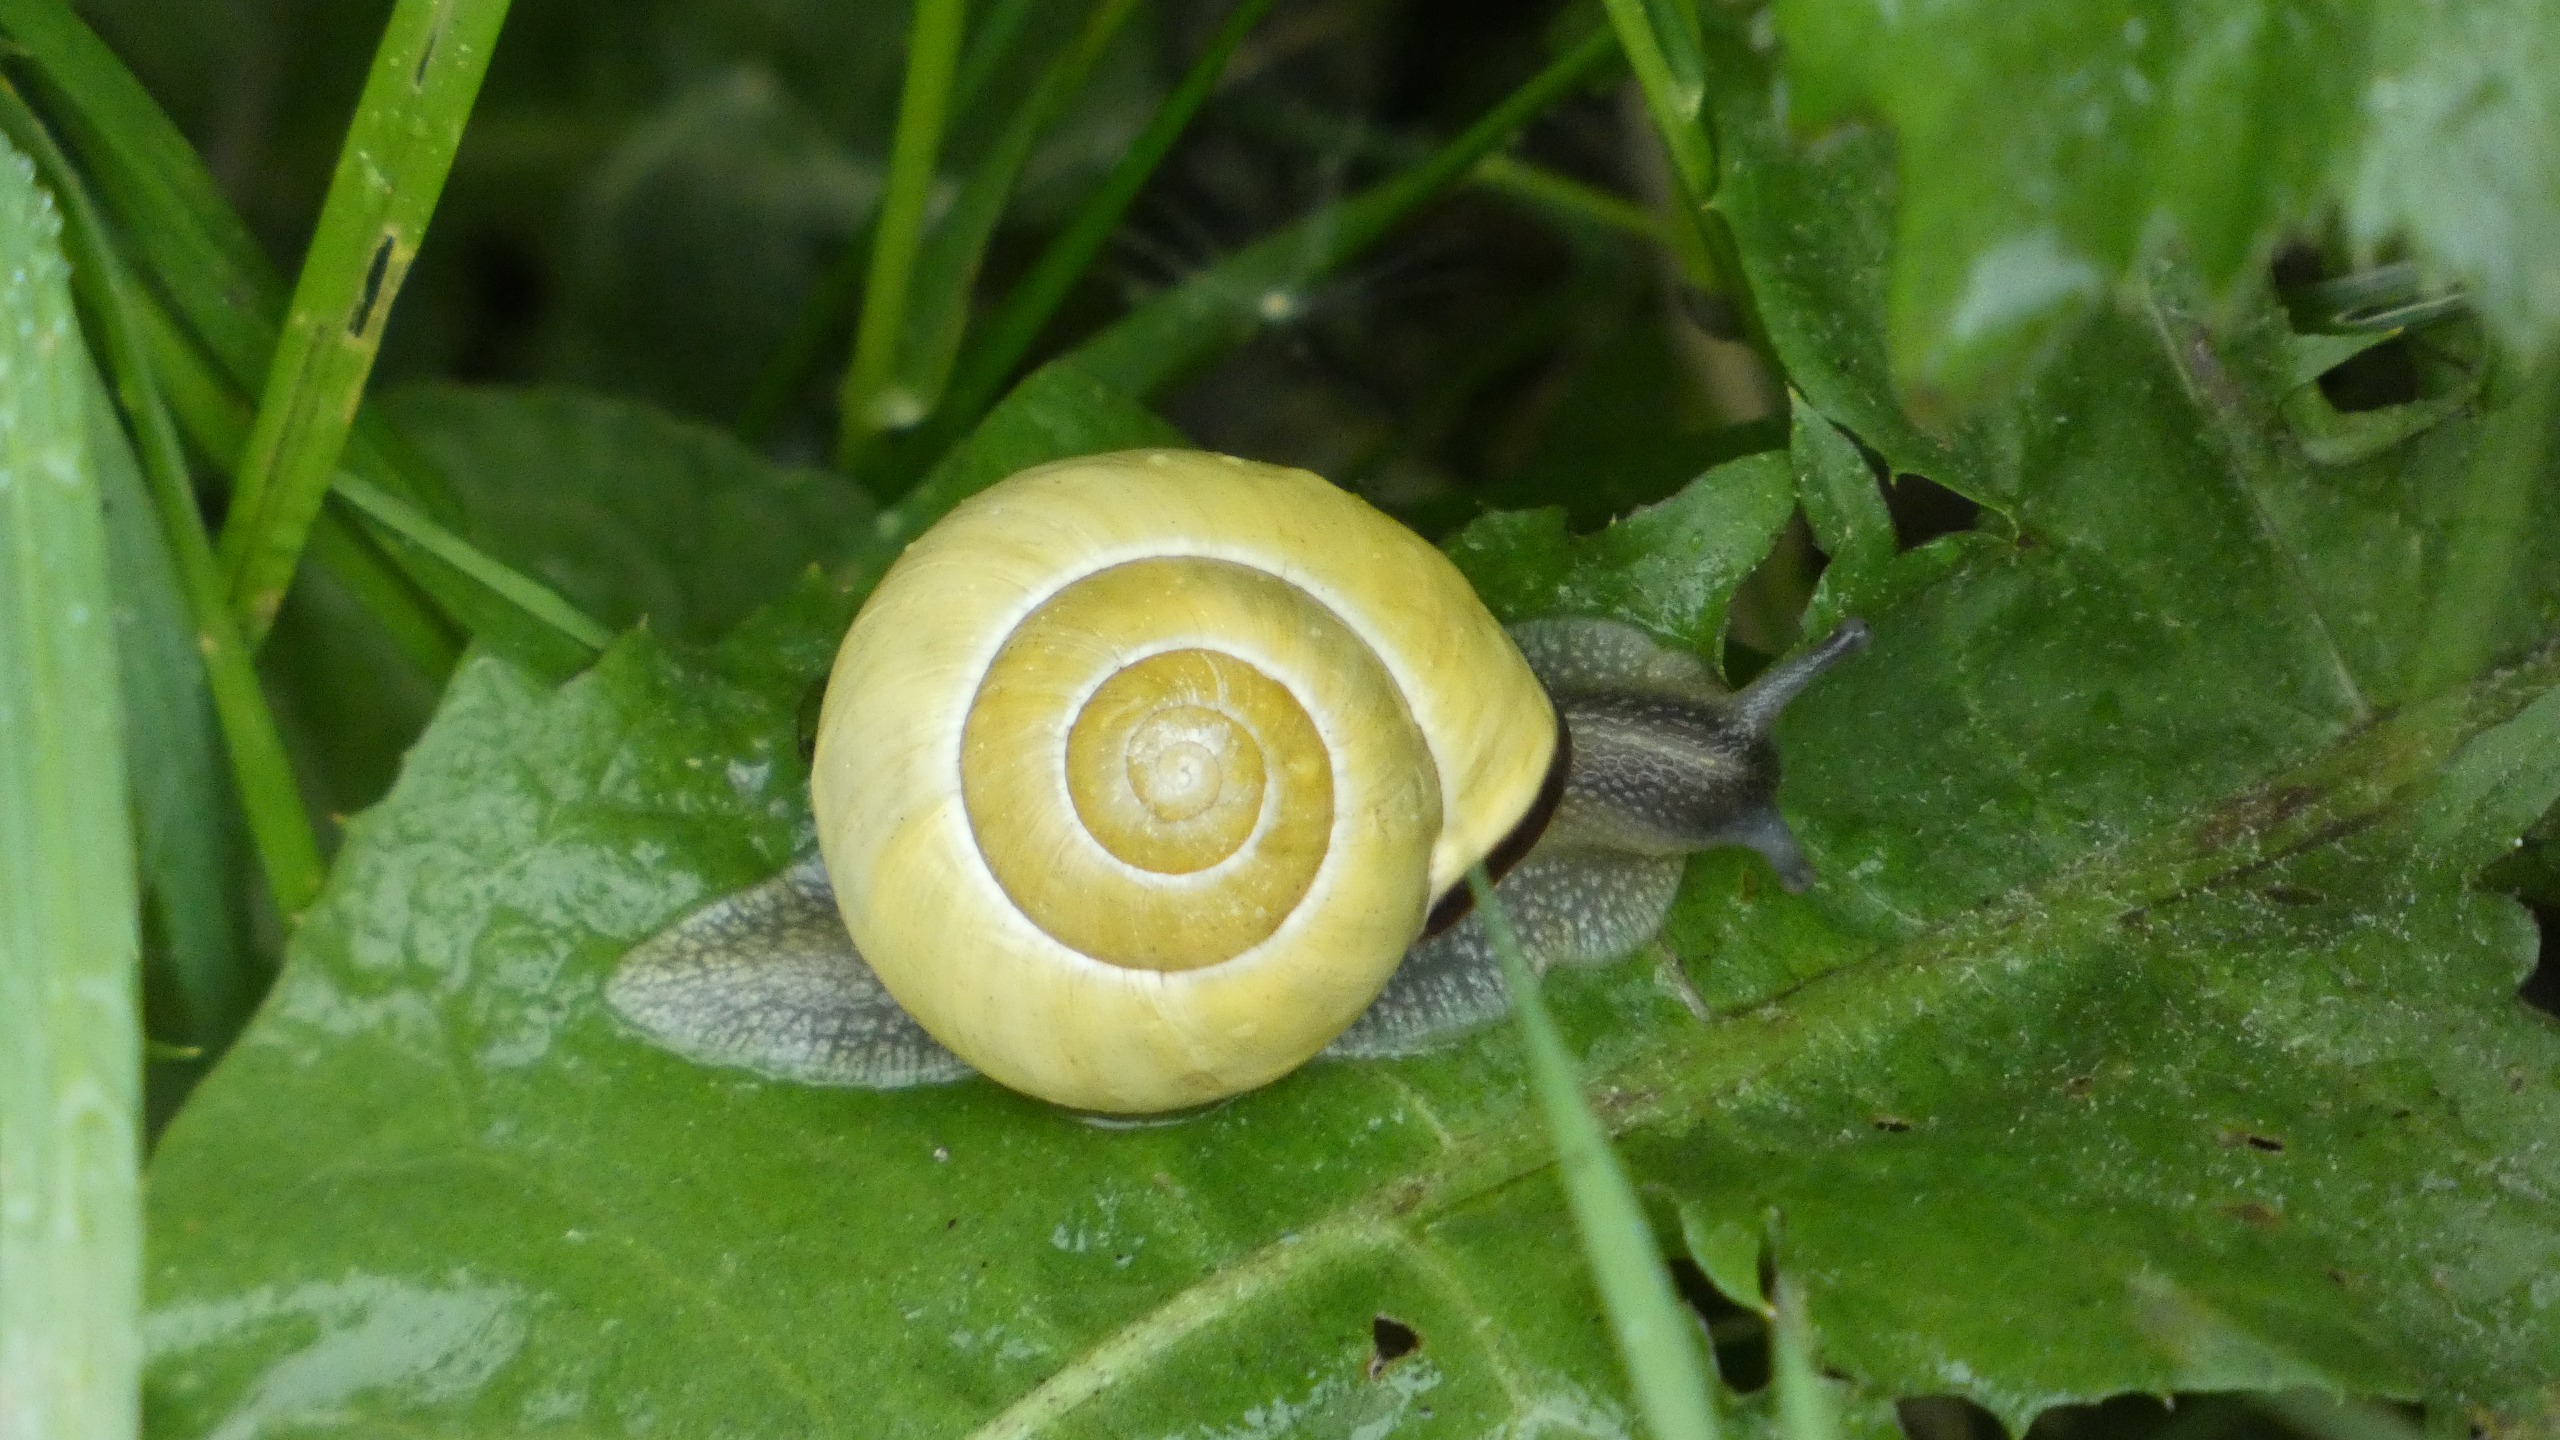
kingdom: Animalia
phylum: Mollusca
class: Gastropoda
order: Stylommatophora
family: Helicidae
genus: Cepaea
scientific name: Cepaea nemoralis
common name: Lundsnegl
